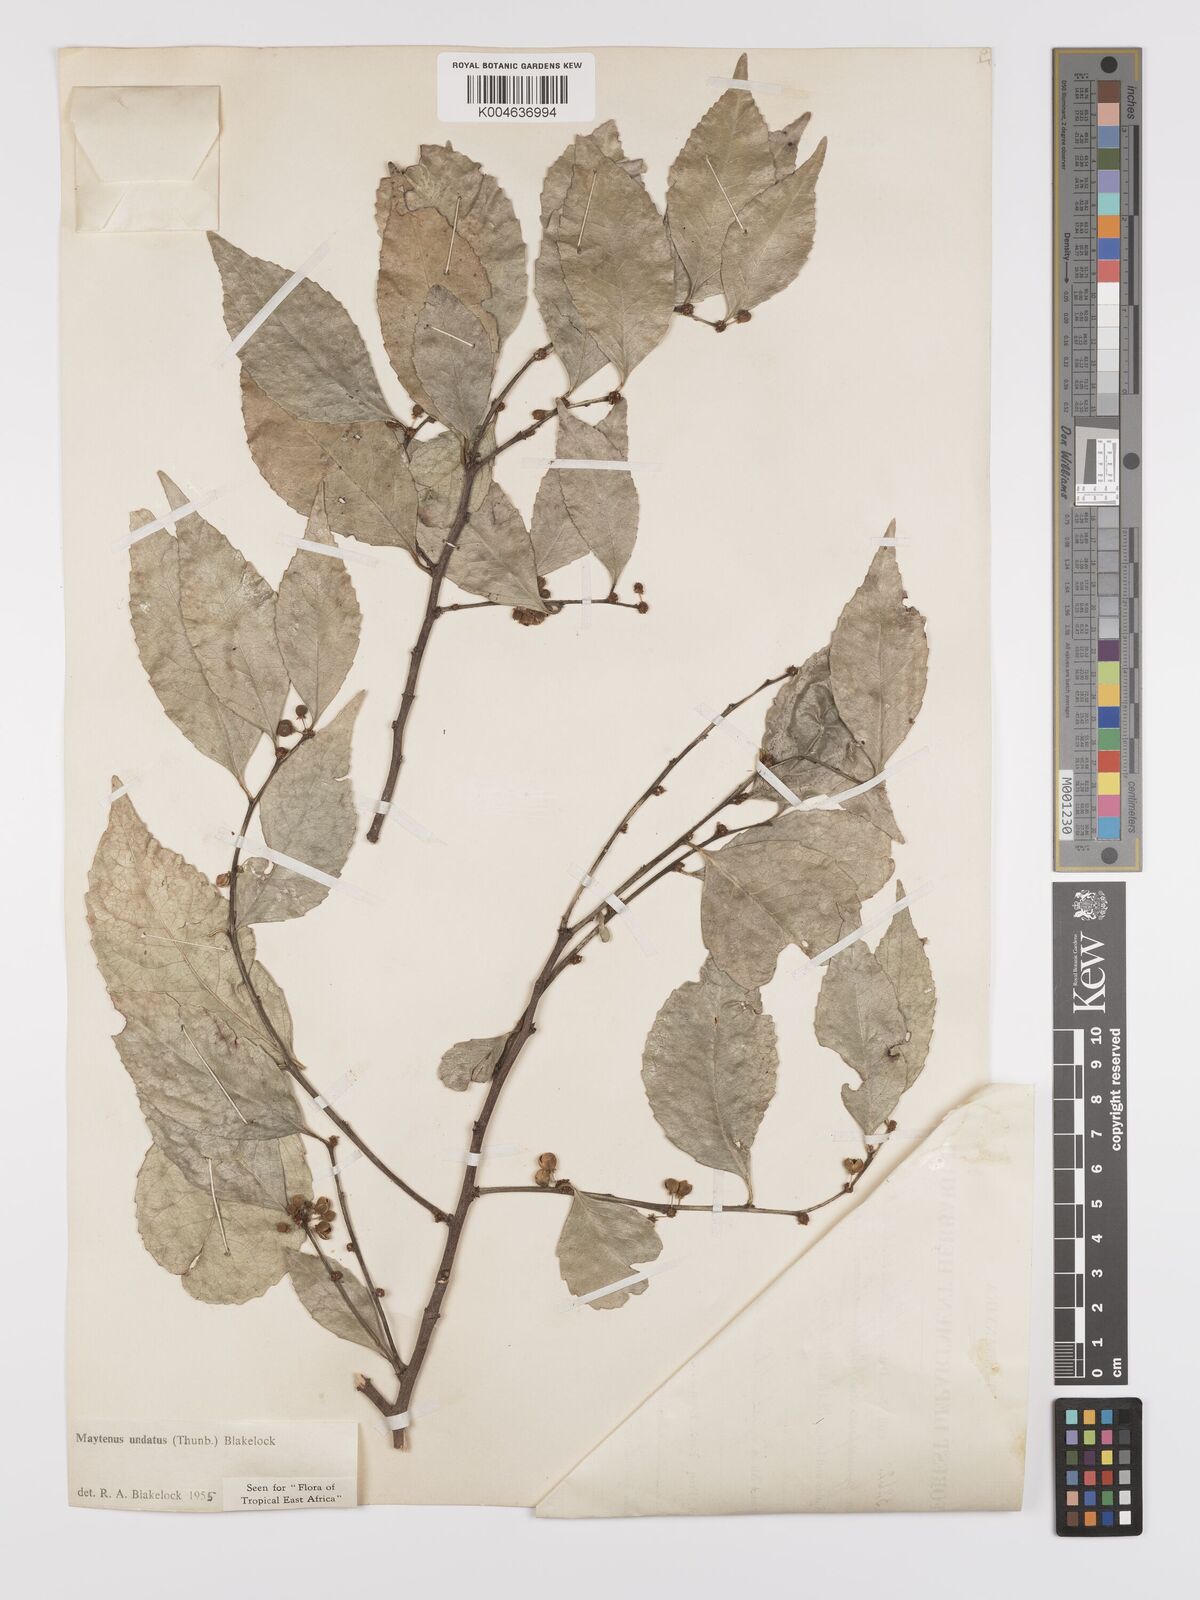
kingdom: Plantae
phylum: Tracheophyta
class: Magnoliopsida
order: Celastrales
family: Celastraceae
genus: Gymnosporia
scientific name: Gymnosporia undata
